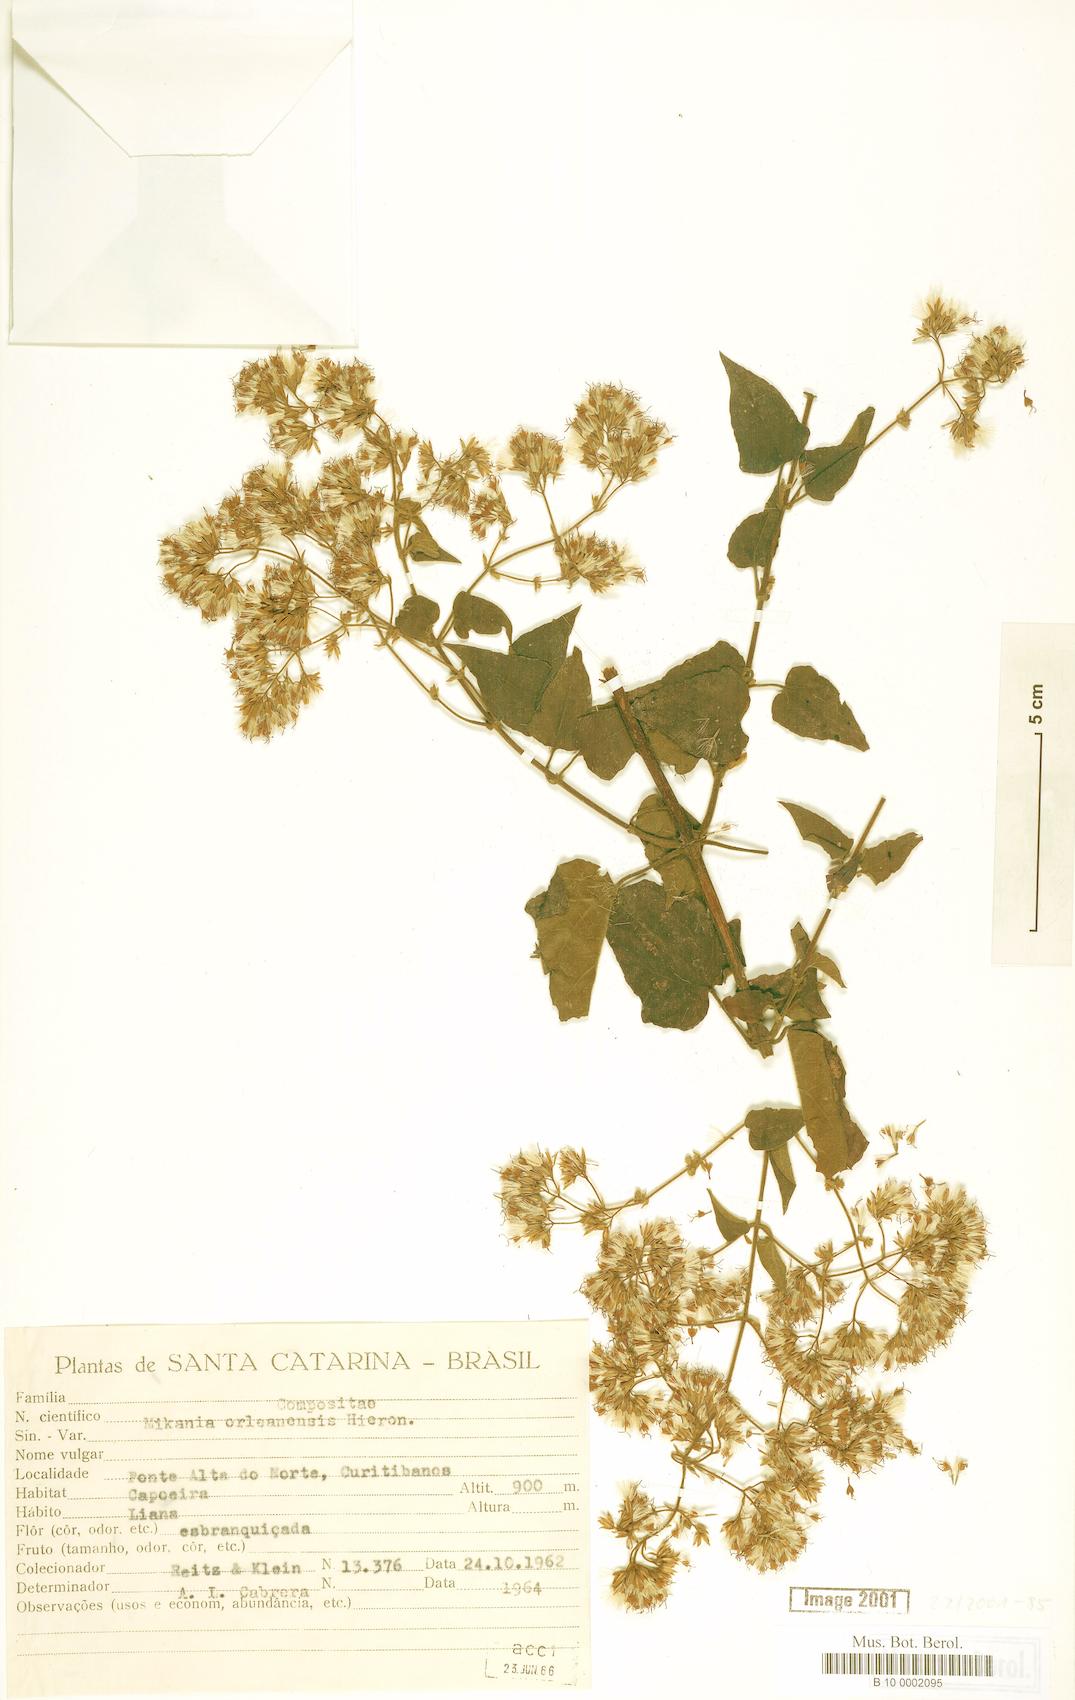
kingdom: Plantae
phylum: Tracheophyta
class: Magnoliopsida
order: Asterales
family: Asteraceae
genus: Mikania
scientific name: Mikania orleansensis
